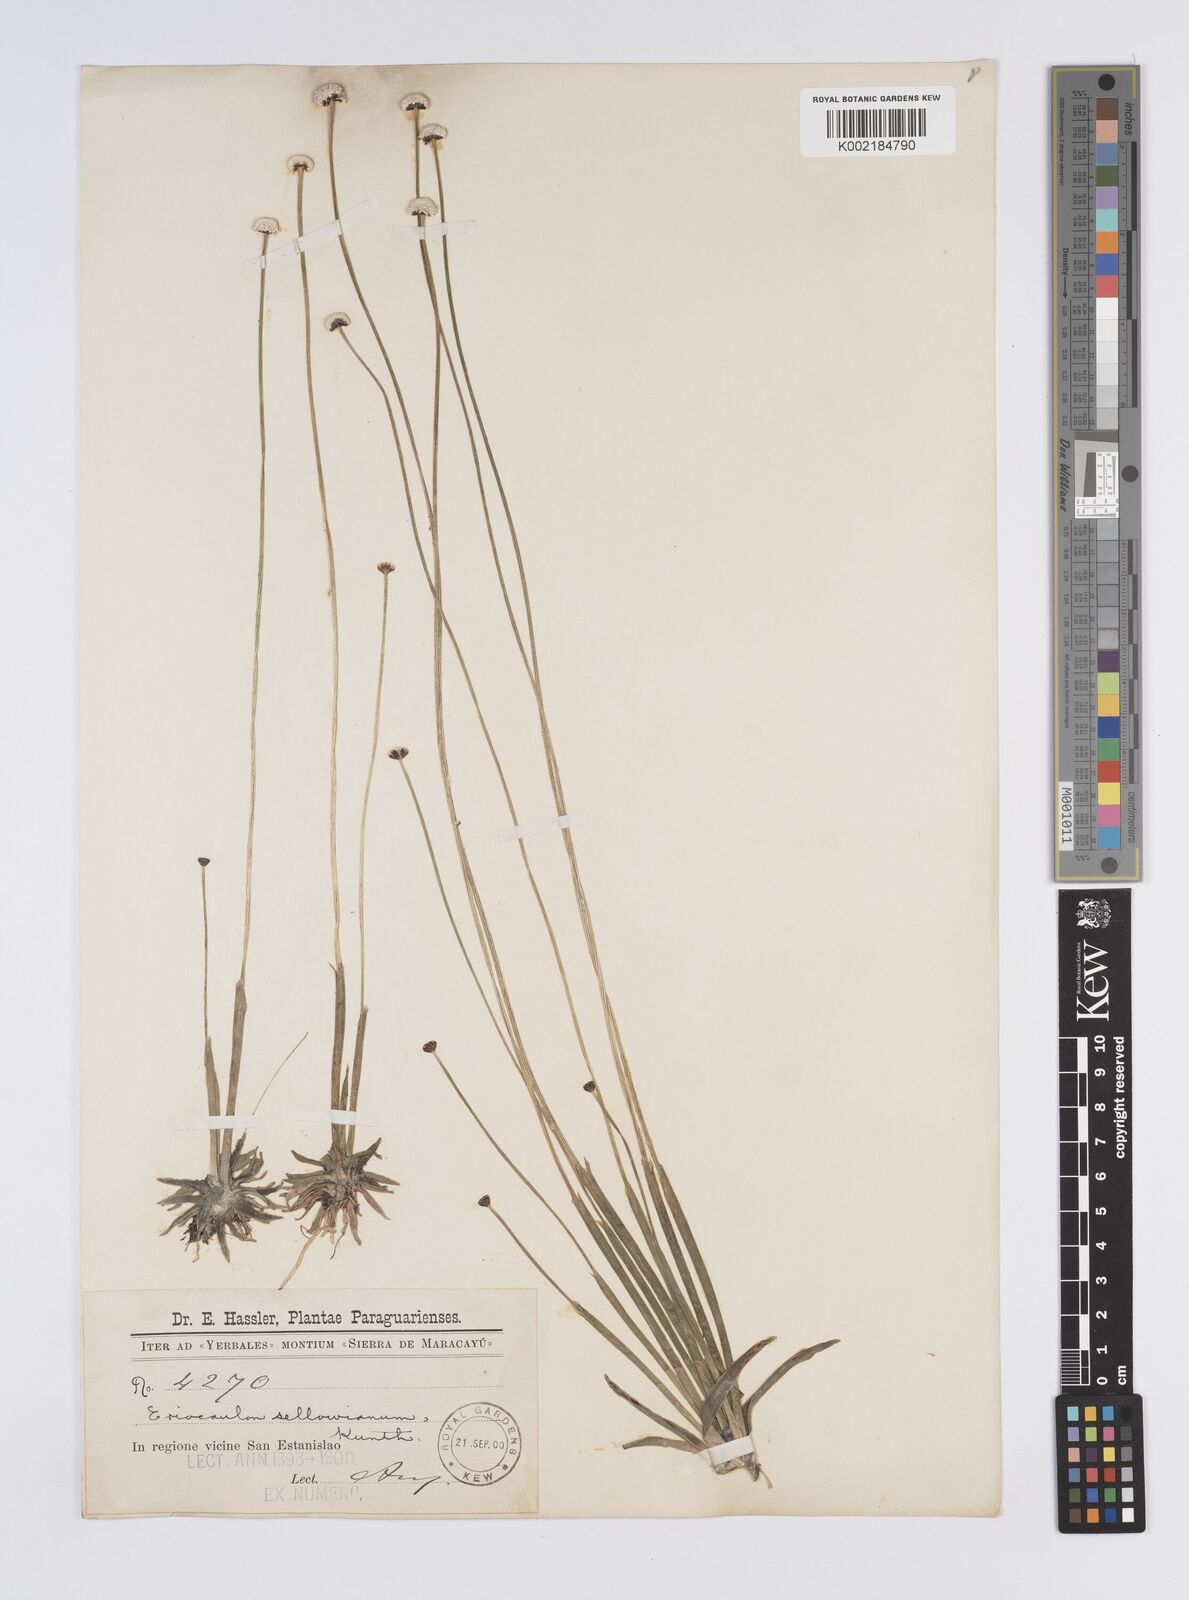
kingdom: Plantae
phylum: Tracheophyta
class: Liliopsida
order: Poales
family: Eriocaulaceae
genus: Eriocaulon
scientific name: Eriocaulon sellowianum
